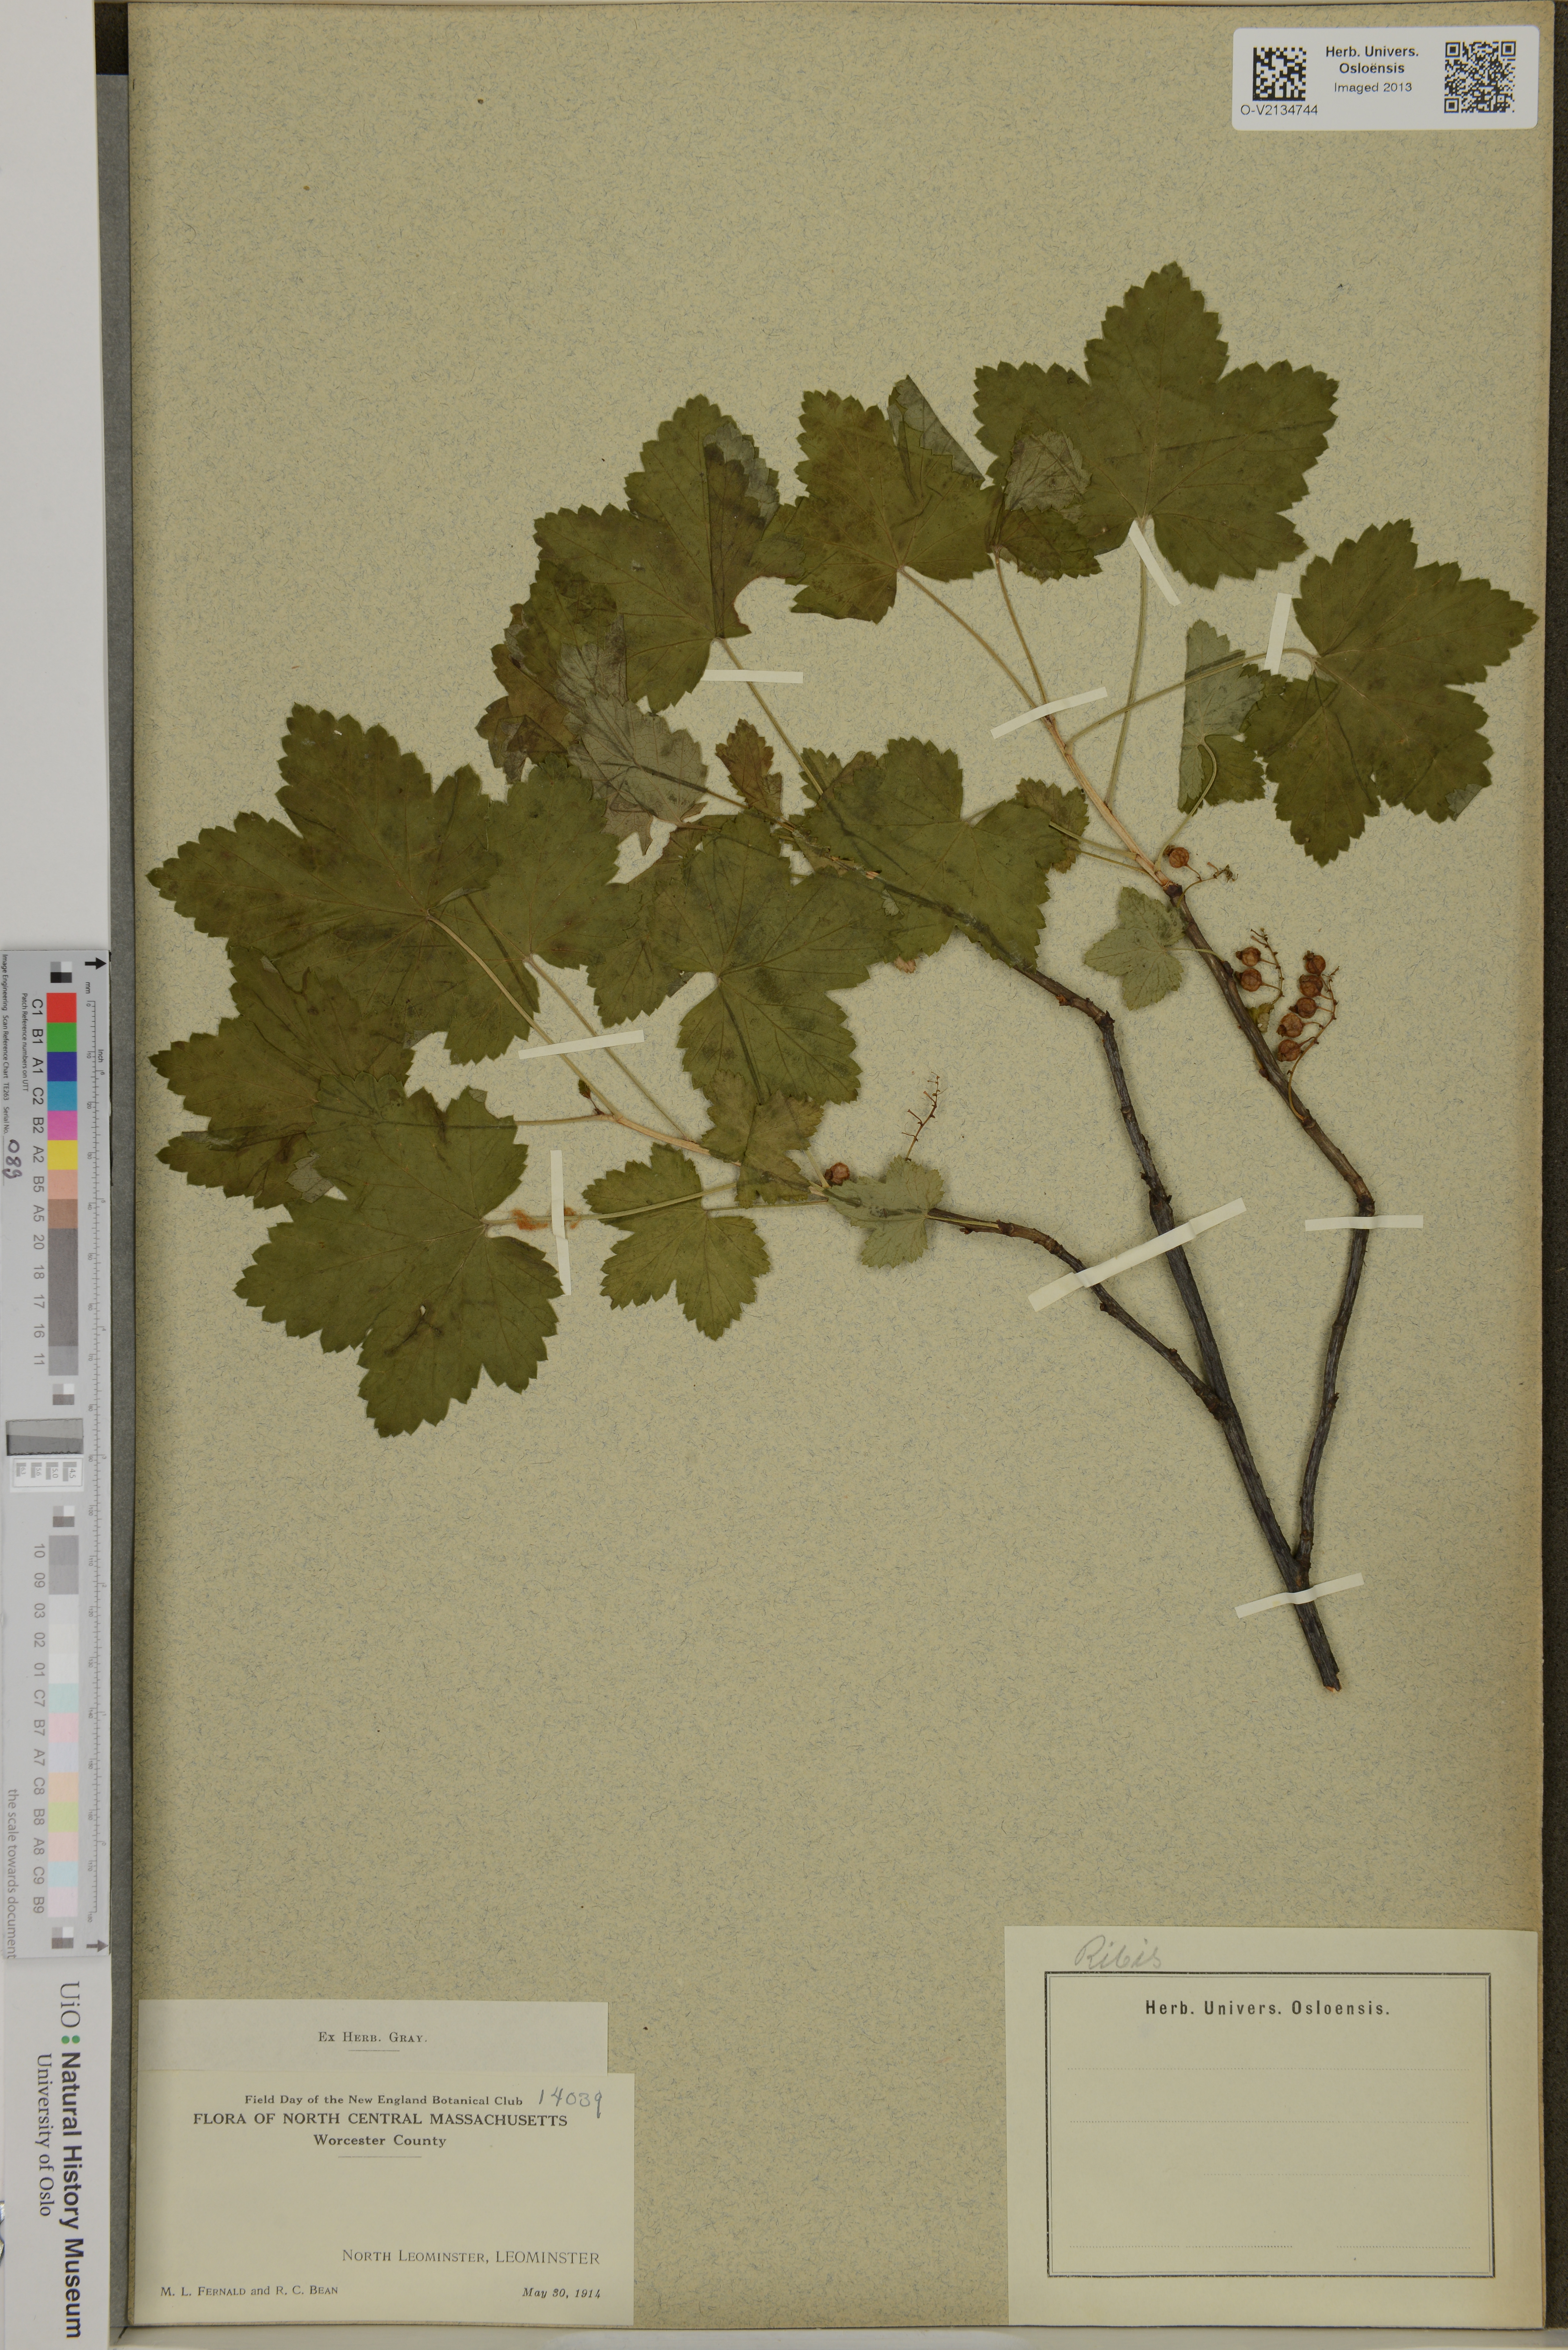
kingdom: Plantae
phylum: Tracheophyta
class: Magnoliopsida
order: Saxifragales
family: Grossulariaceae
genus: Ribes
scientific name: Ribes
